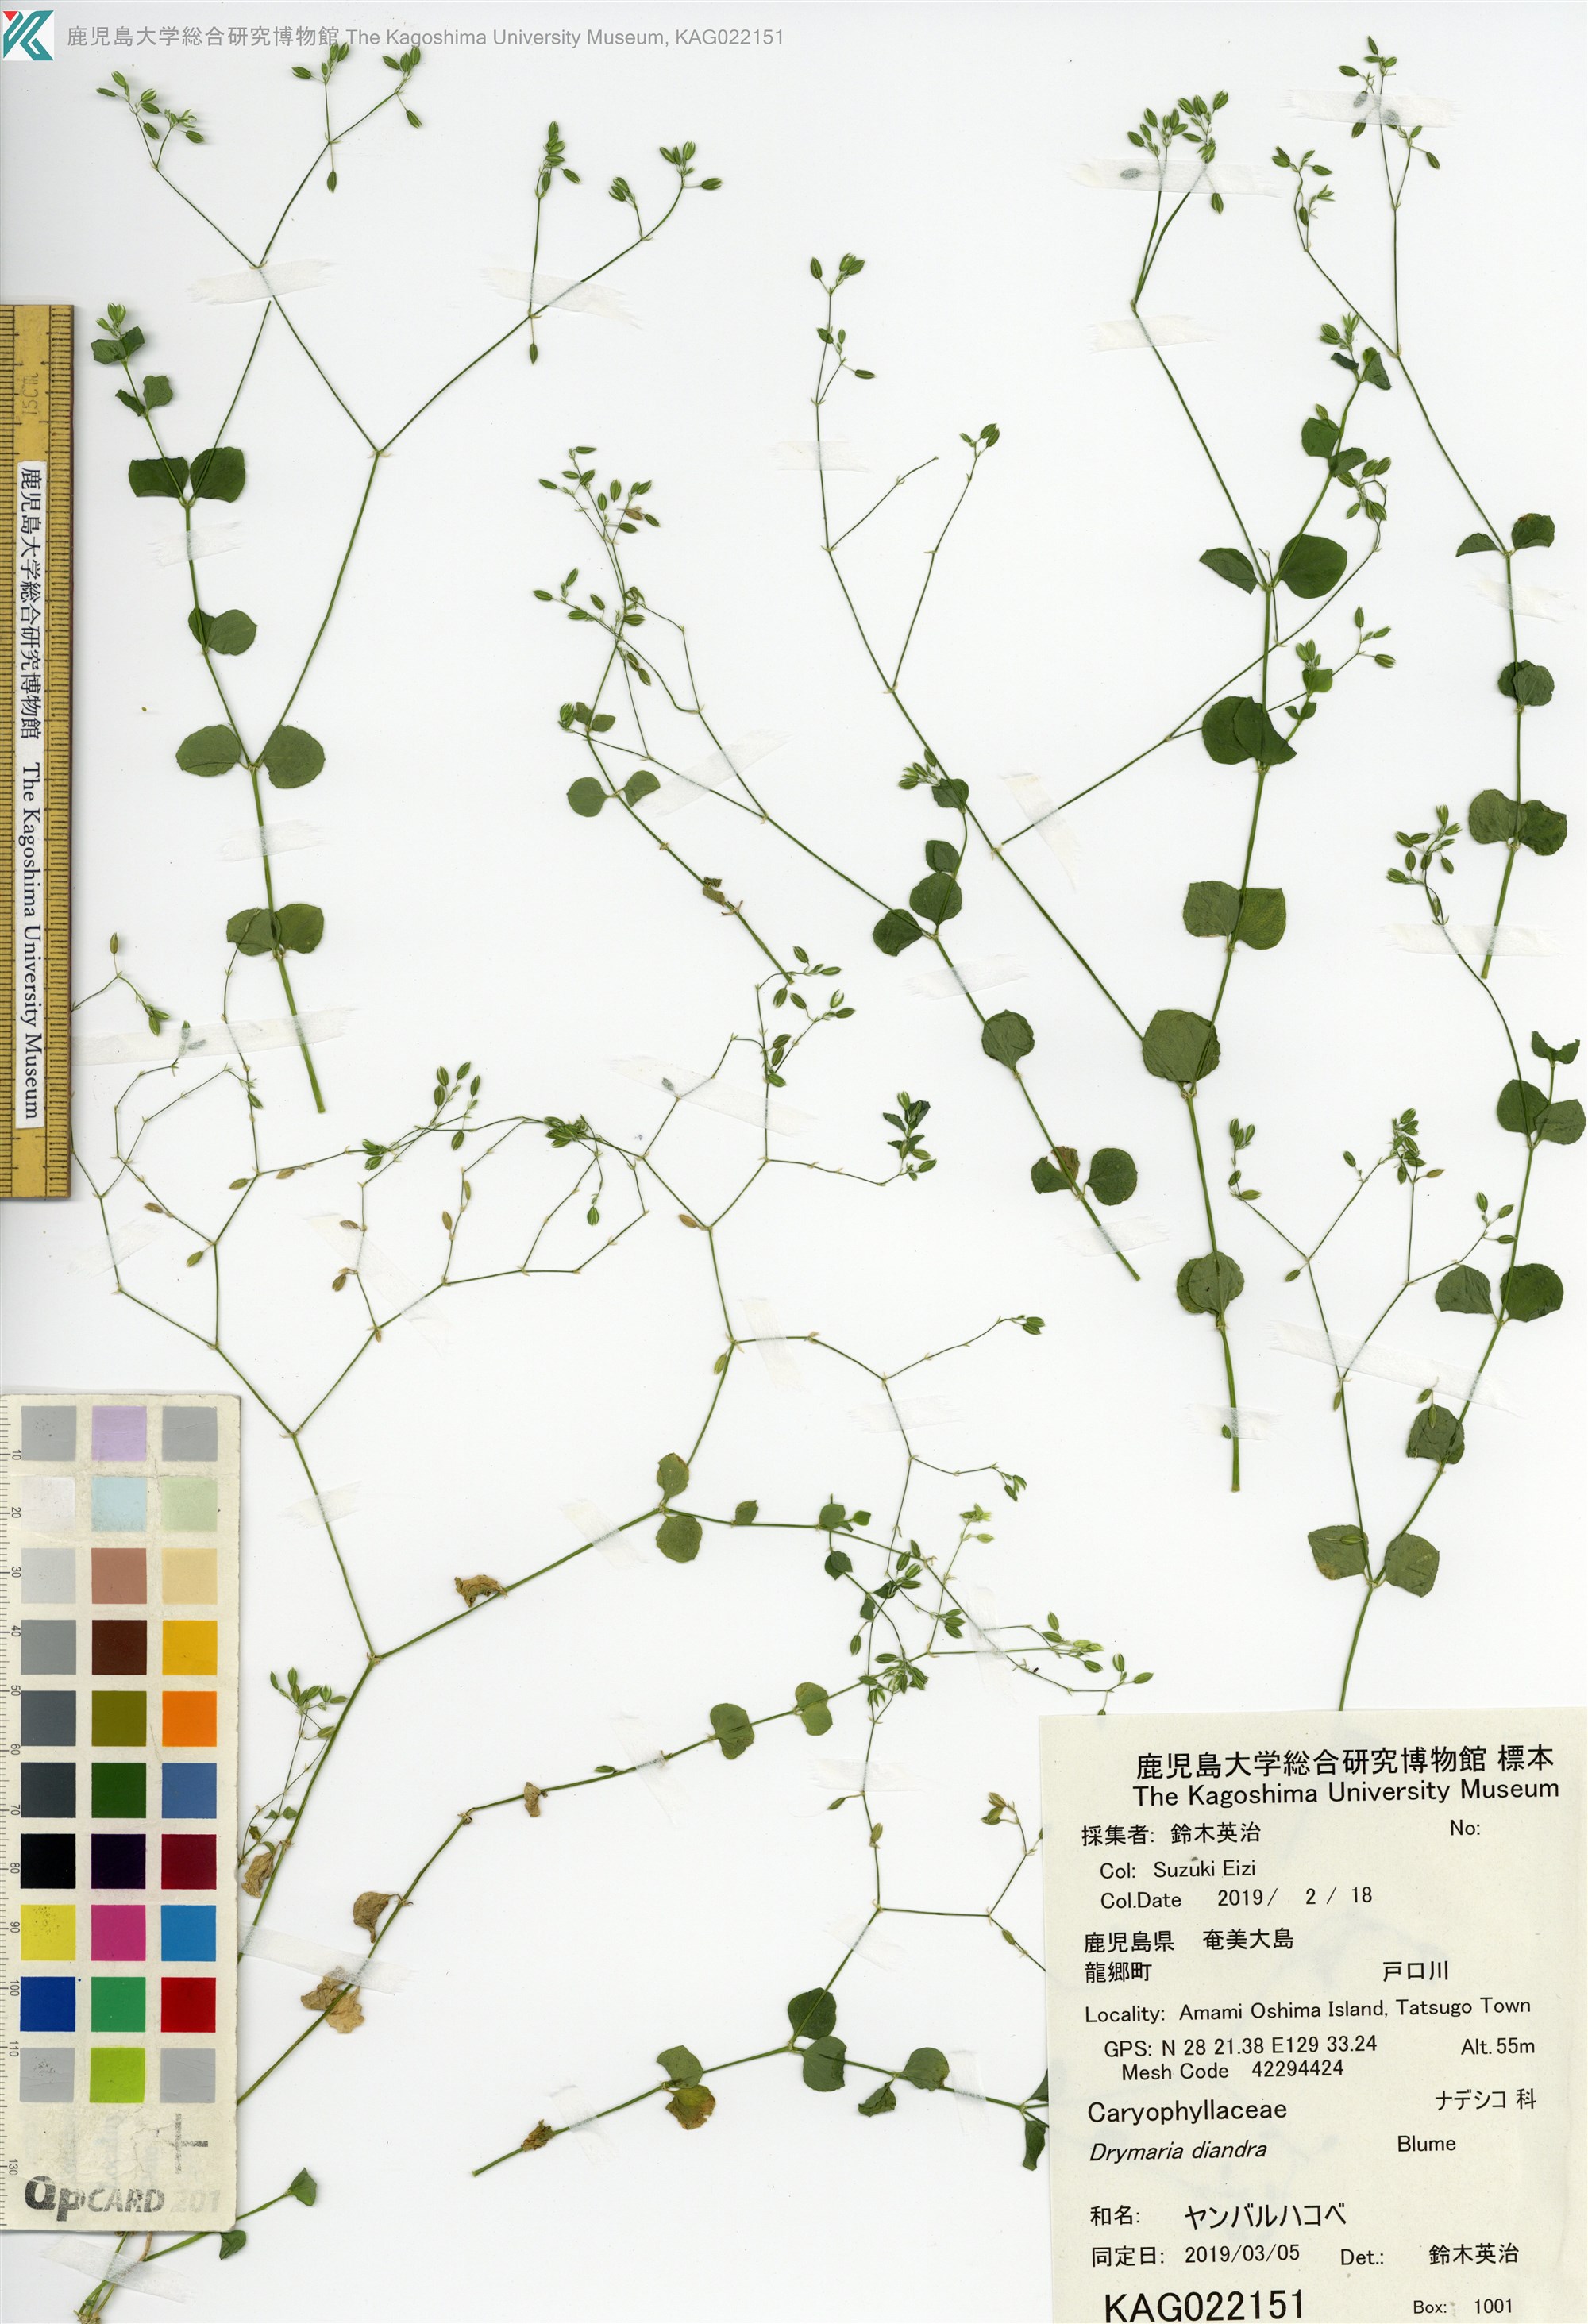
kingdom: Plantae
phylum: Tracheophyta
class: Magnoliopsida
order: Caryophyllales
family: Caryophyllaceae
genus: Drymaria
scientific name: Drymaria diandra
